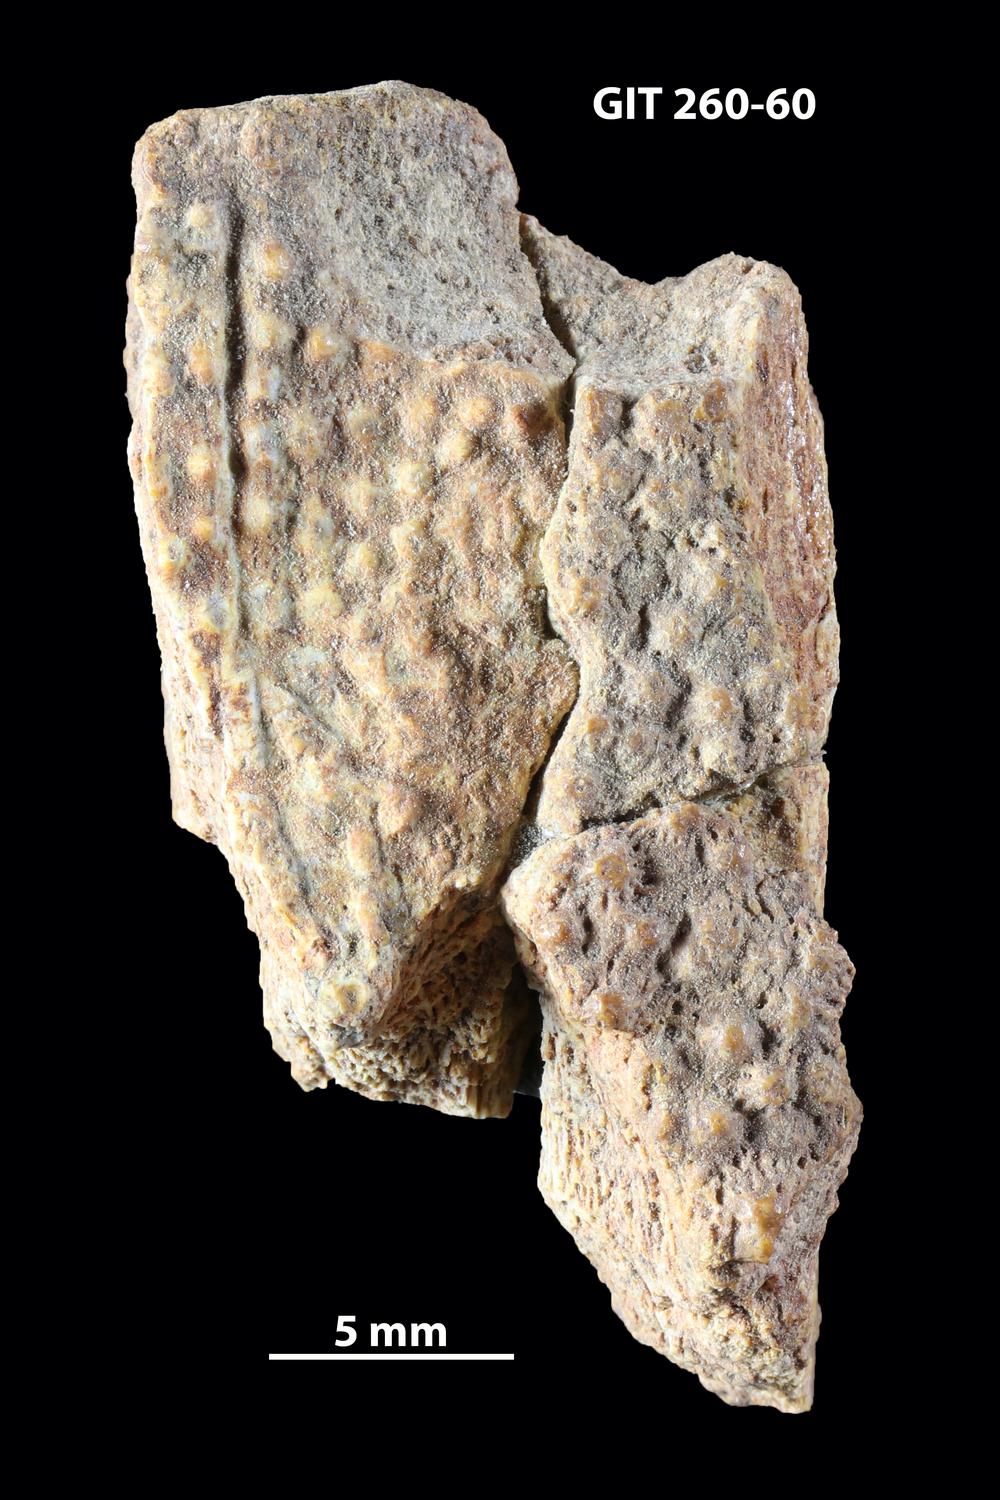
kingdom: Animalia
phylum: Chordata
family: Homostiidae
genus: Homostius
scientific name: Homostius
